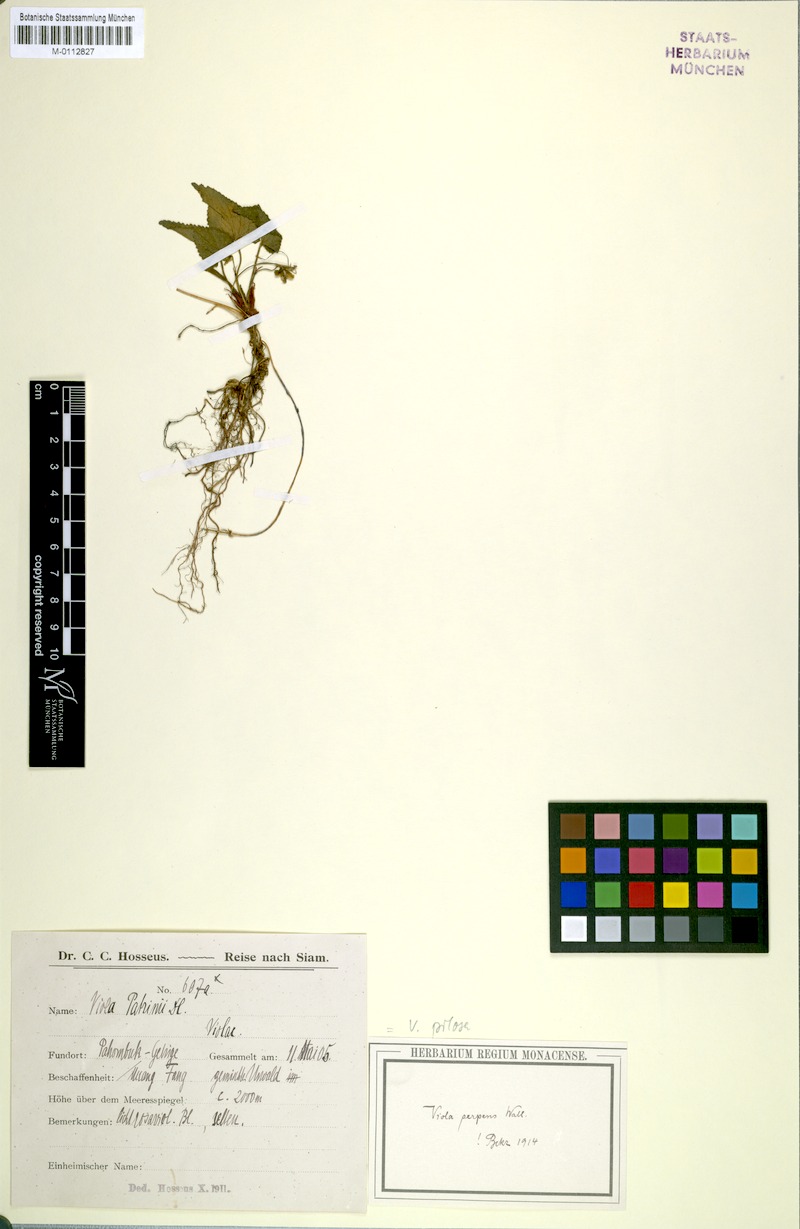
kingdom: Plantae
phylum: Tracheophyta
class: Magnoliopsida
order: Malpighiales
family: Violaceae
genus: Viola
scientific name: Viola pilosa
